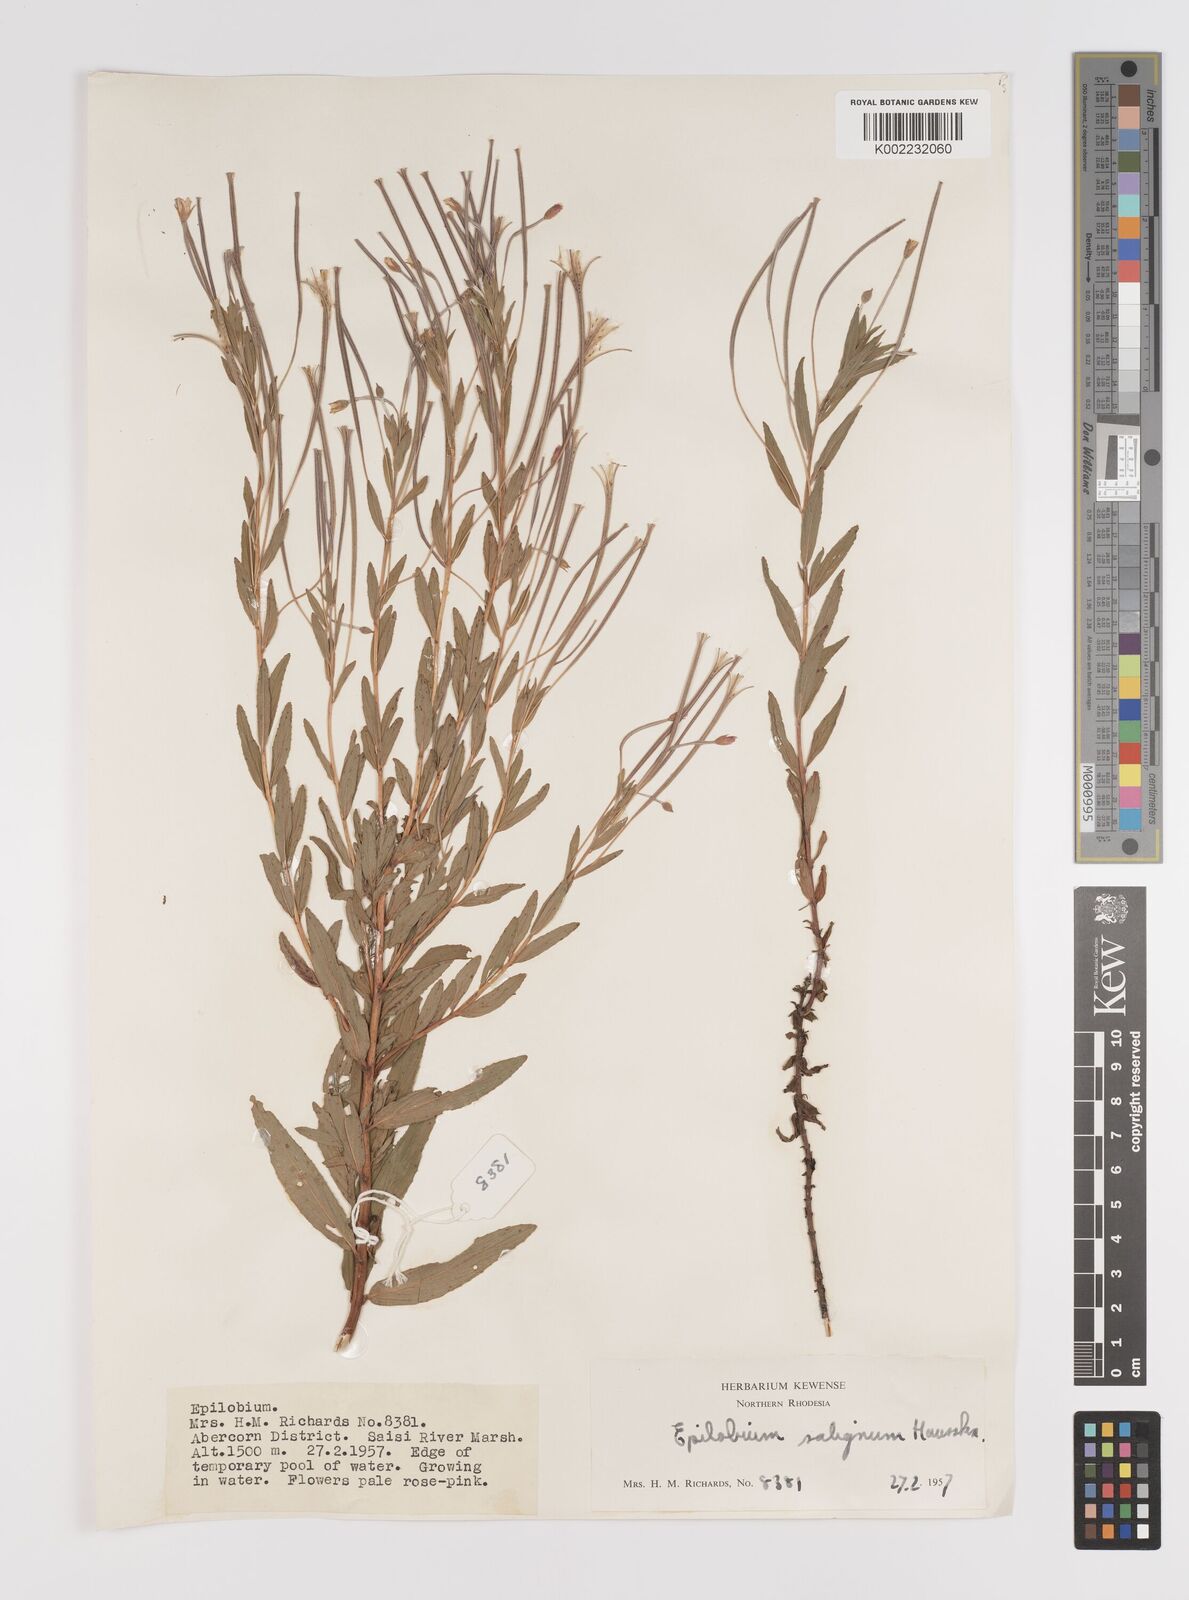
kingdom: Plantae
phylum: Tracheophyta
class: Magnoliopsida
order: Myrtales
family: Onagraceae
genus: Epilobium
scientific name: Epilobium salignum
